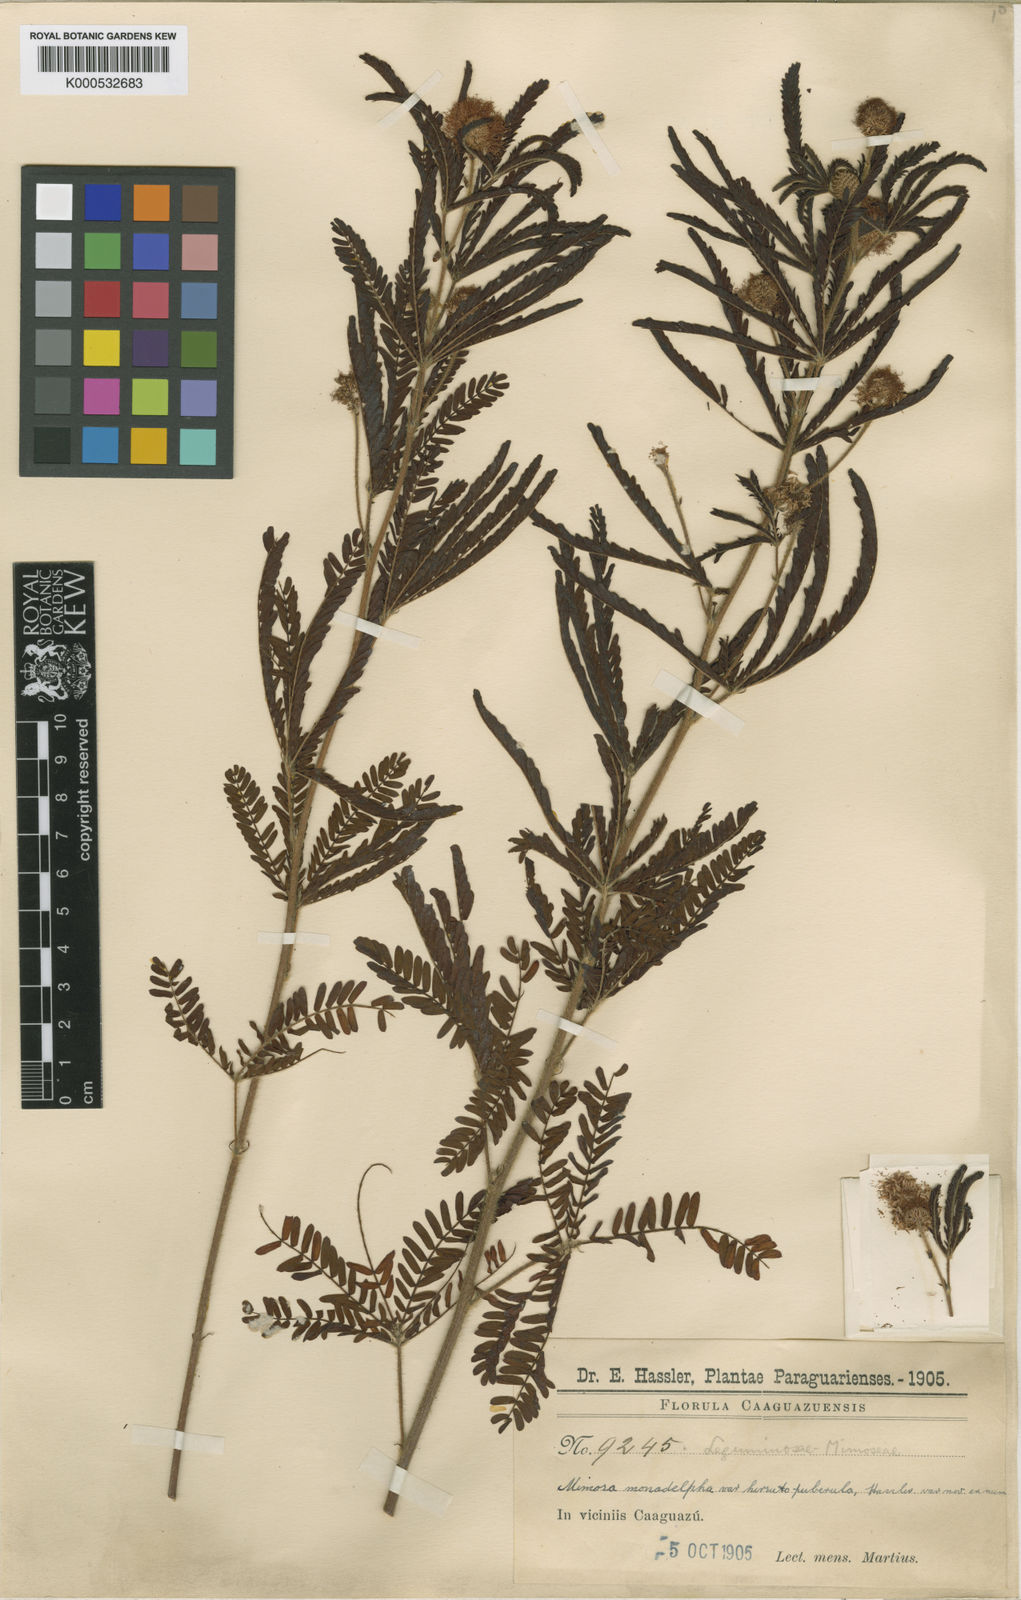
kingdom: Plantae
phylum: Tracheophyta
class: Magnoliopsida
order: Fabales
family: Fabaceae
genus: Mimosa
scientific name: Mimosa amambayensis
